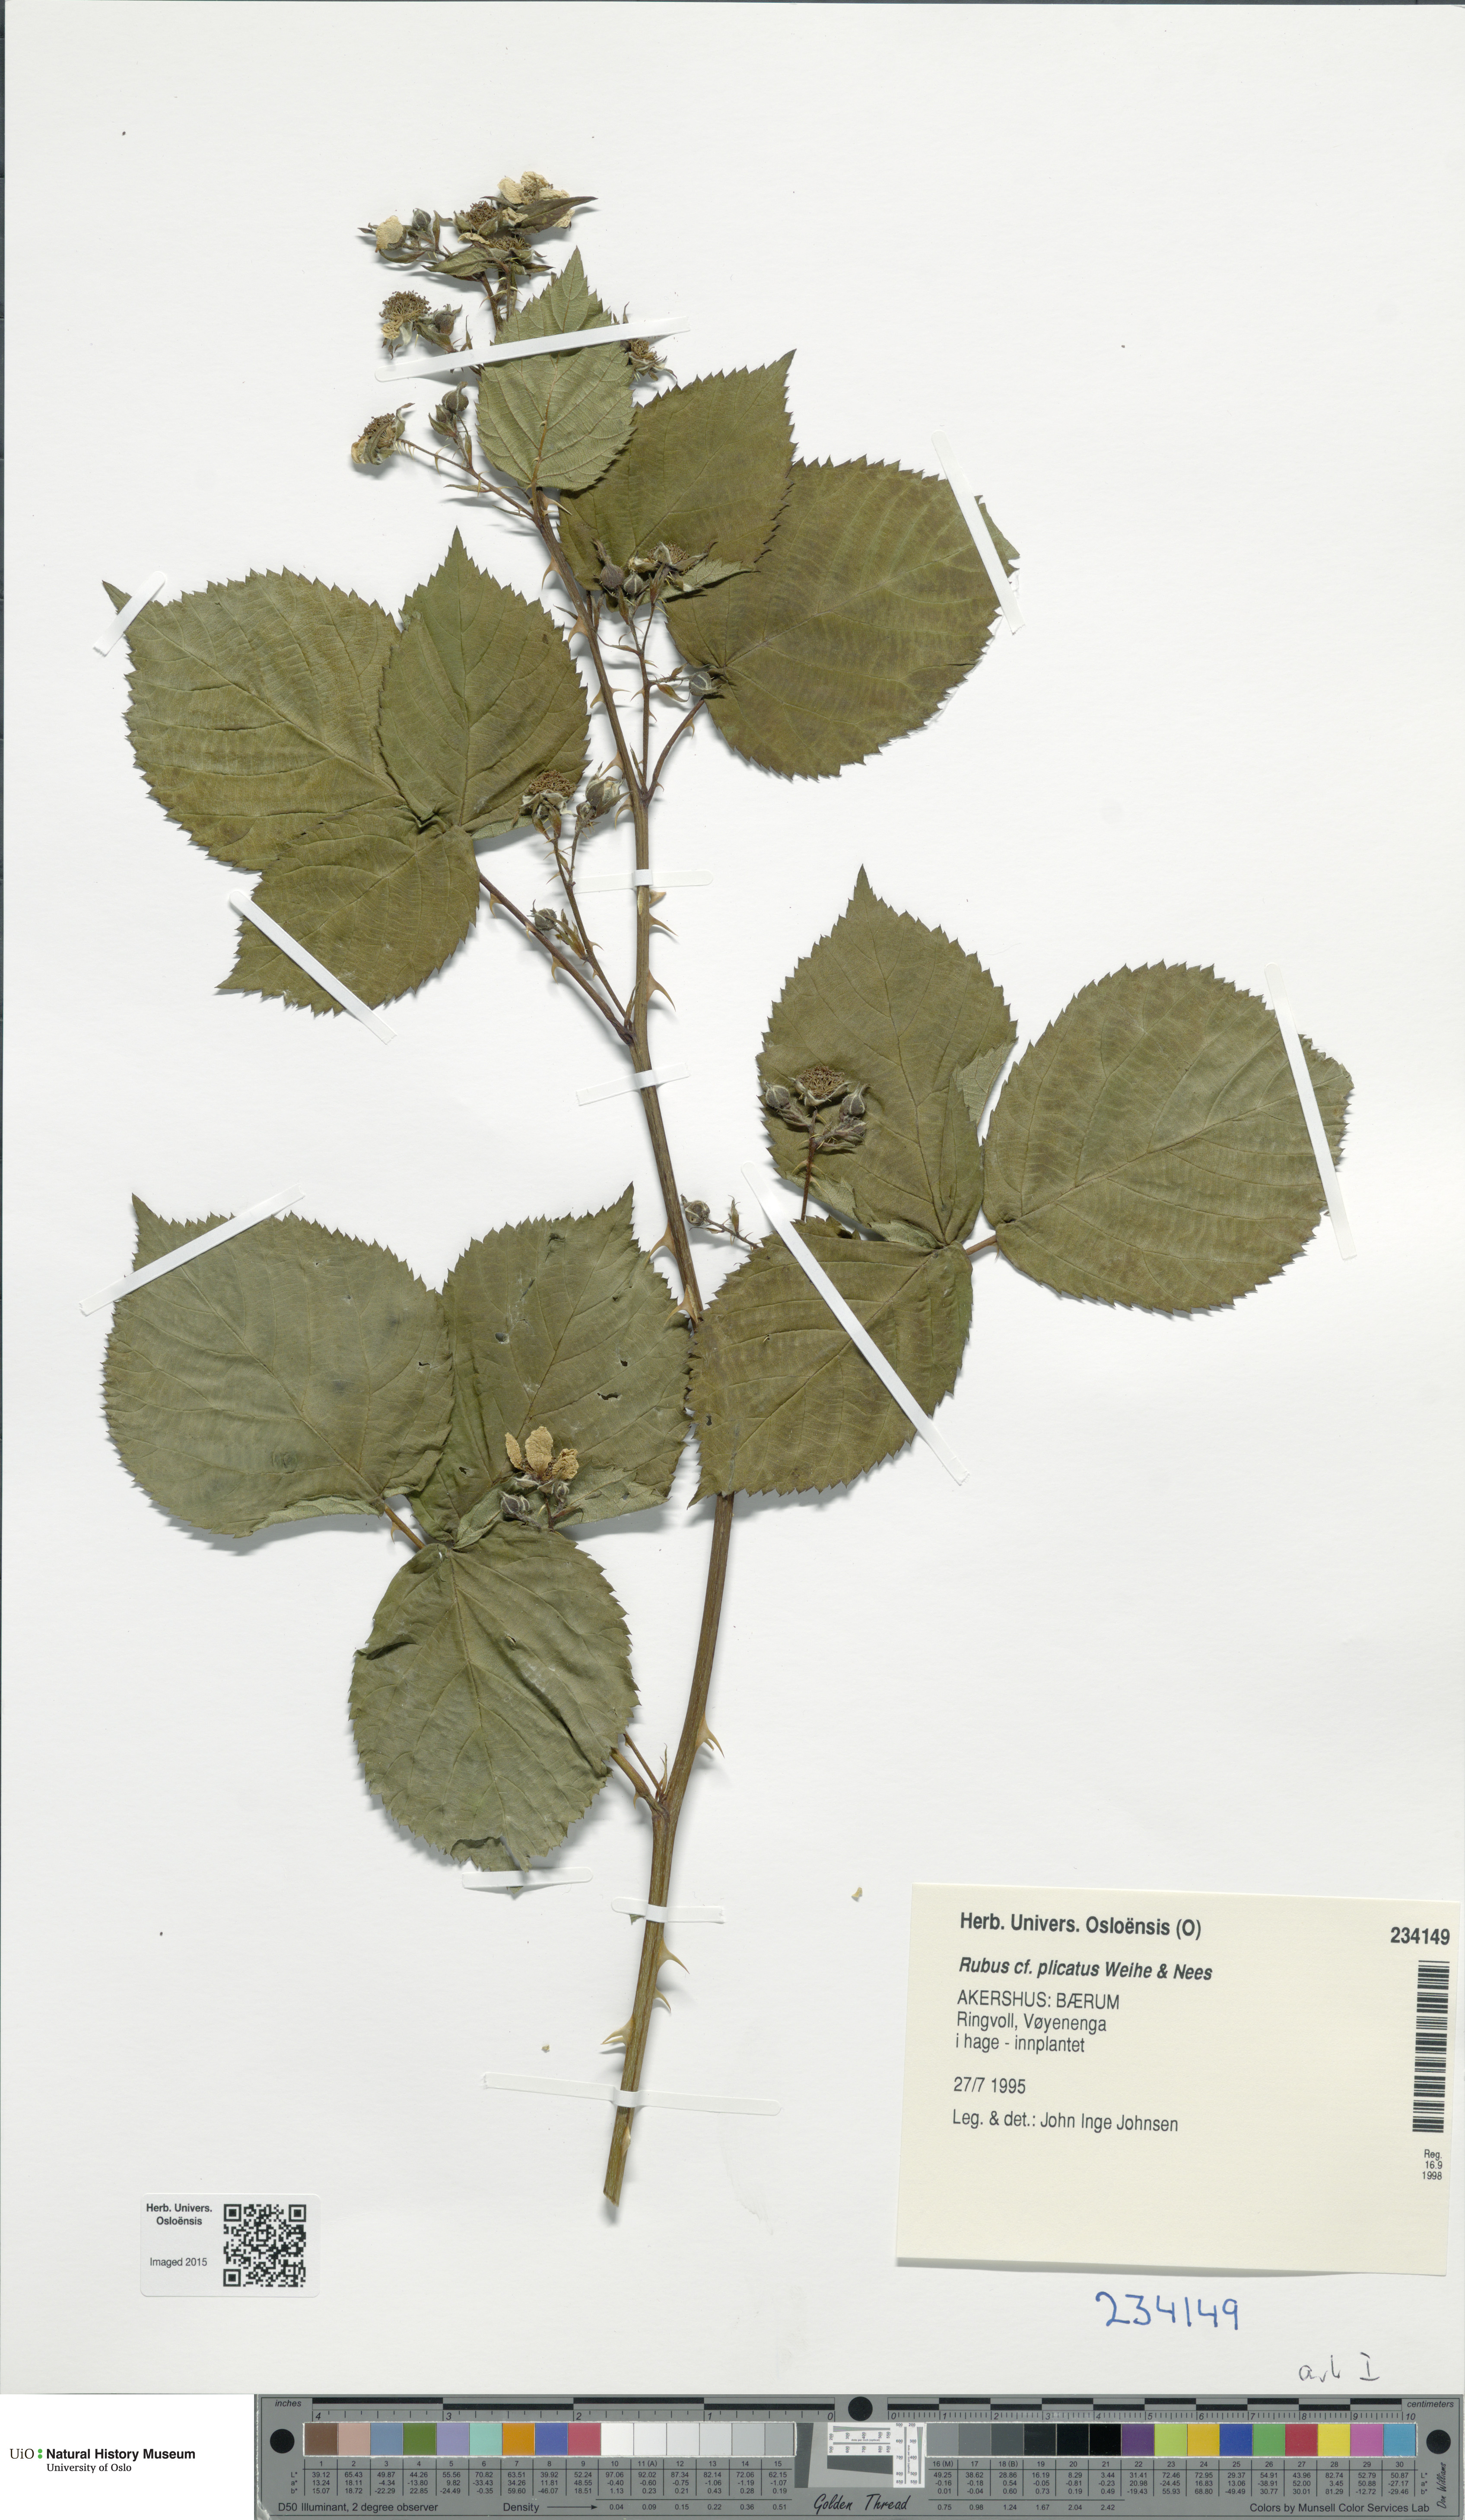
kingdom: Plantae
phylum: Tracheophyta
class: Magnoliopsida
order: Rosales
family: Rosaceae
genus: Rubus
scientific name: Rubus fruticosus
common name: Blackberry, bramble
